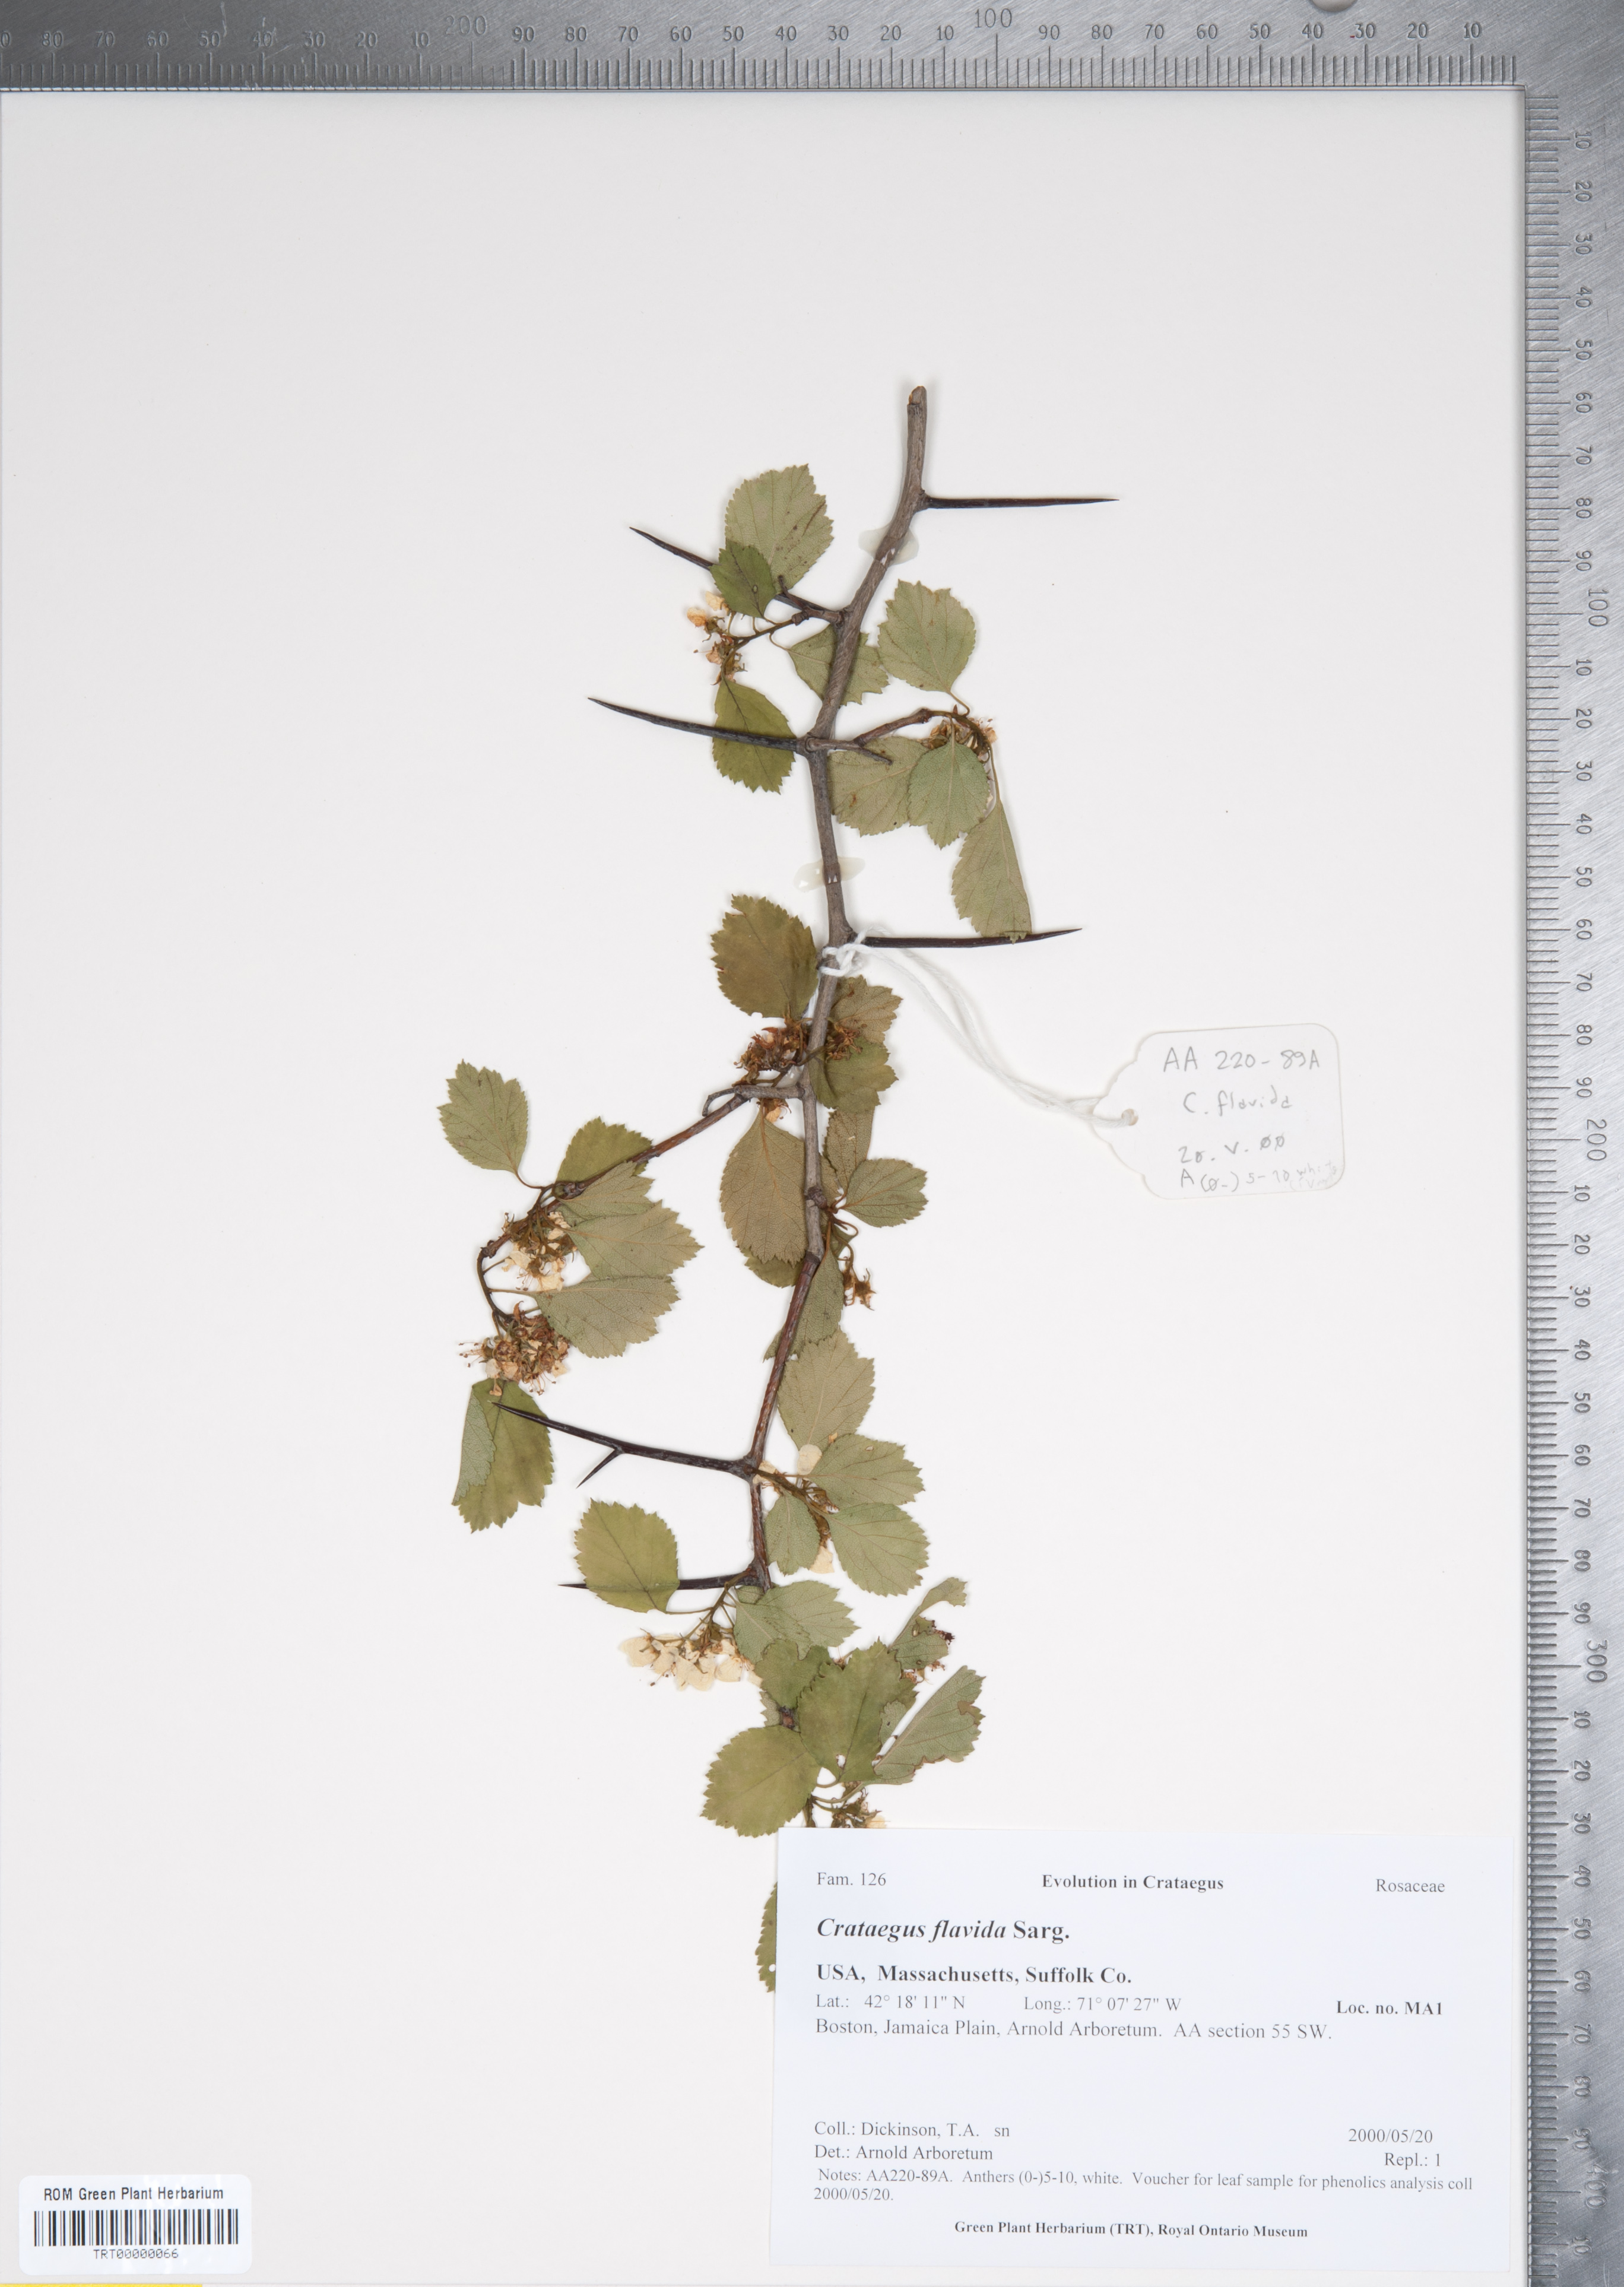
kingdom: Plantae
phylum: Tracheophyta
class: Magnoliopsida
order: Rosales
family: Rosaceae
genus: Crataegus
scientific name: Crataegus dodgei
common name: Dodge's hawthorn
